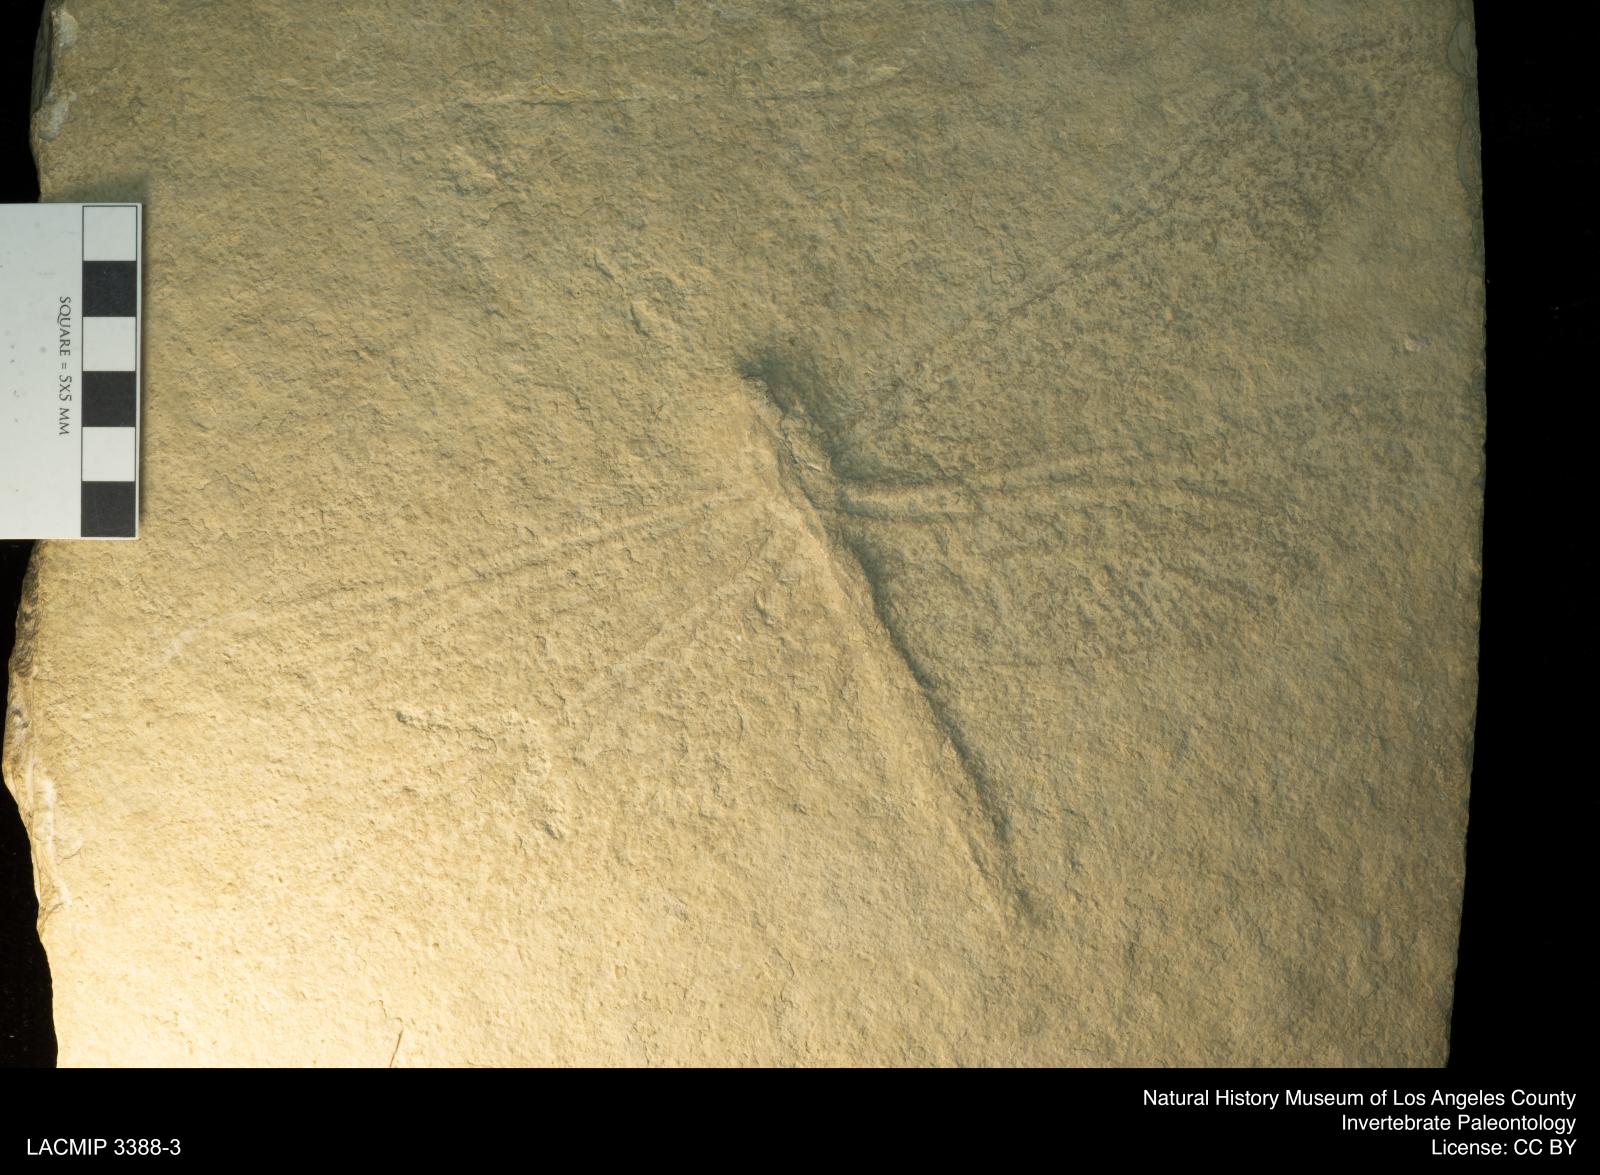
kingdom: Animalia
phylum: Arthropoda
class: Insecta
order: Odonata
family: Cymatophlebiidae
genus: Cymatophlebia
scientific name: Cymatophlebia Libellula longialata
